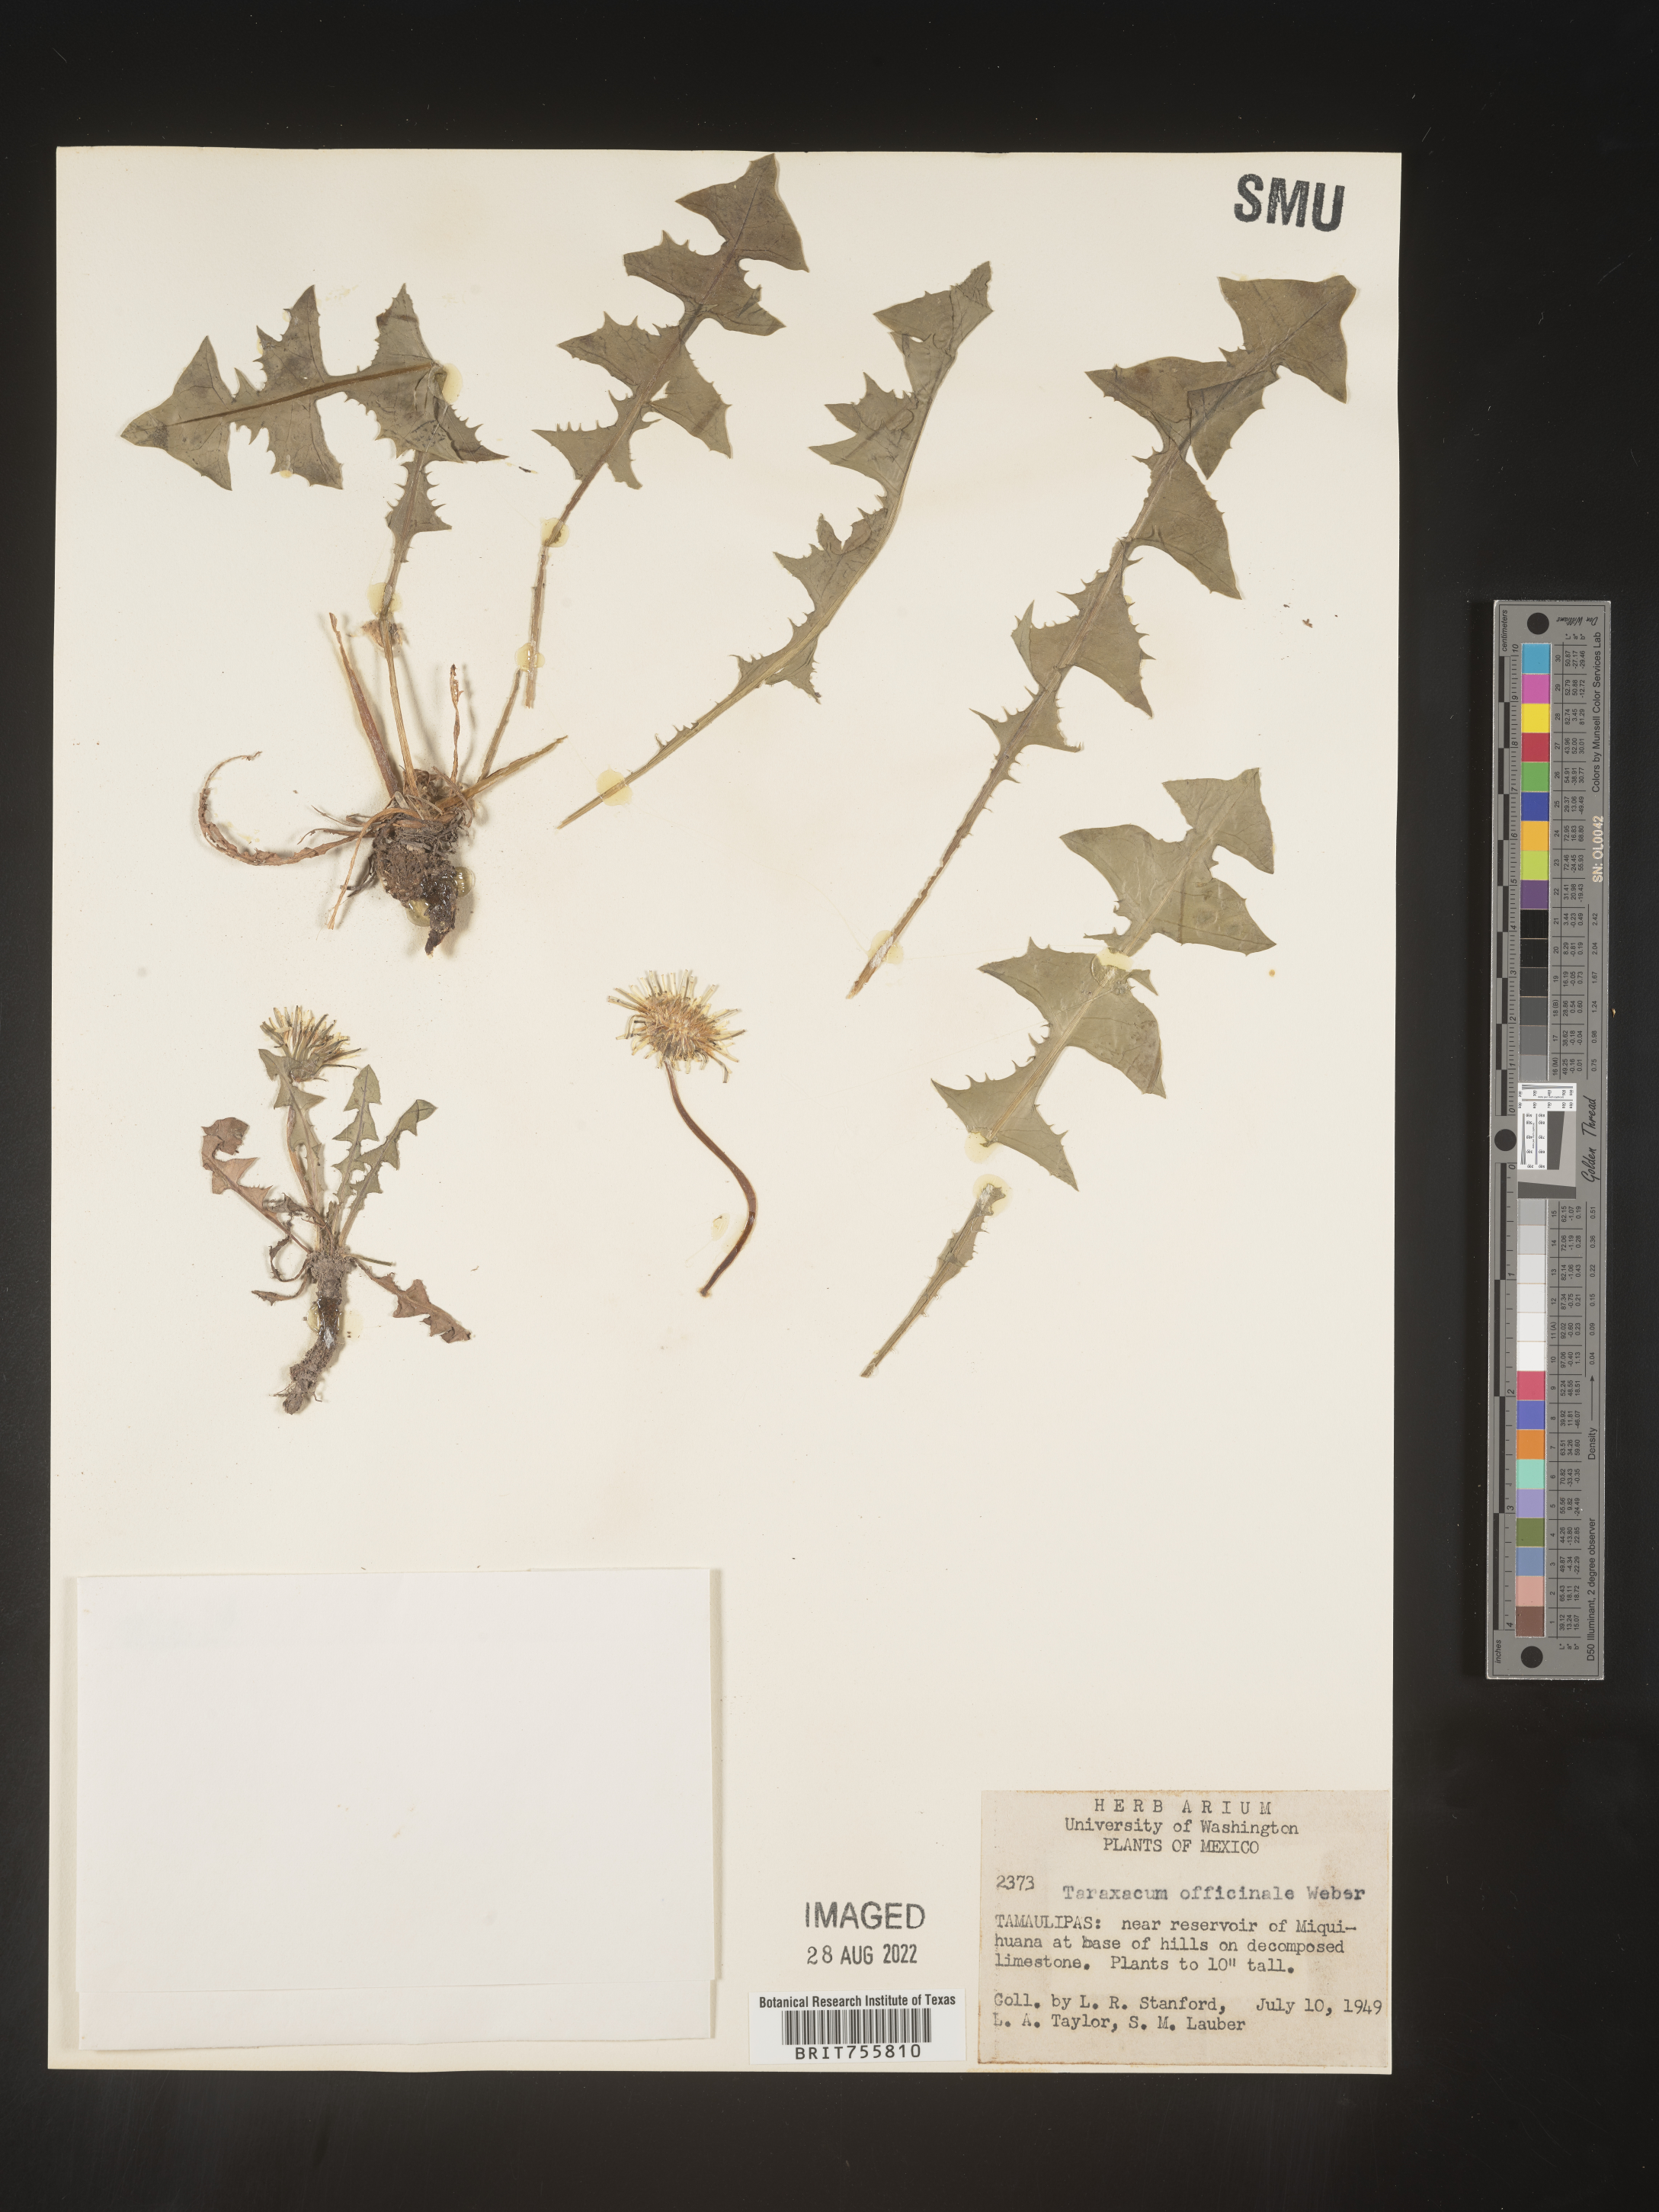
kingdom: Plantae
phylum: Tracheophyta
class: Magnoliopsida
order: Asterales
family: Asteraceae
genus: Taraxacum
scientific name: Taraxacum
